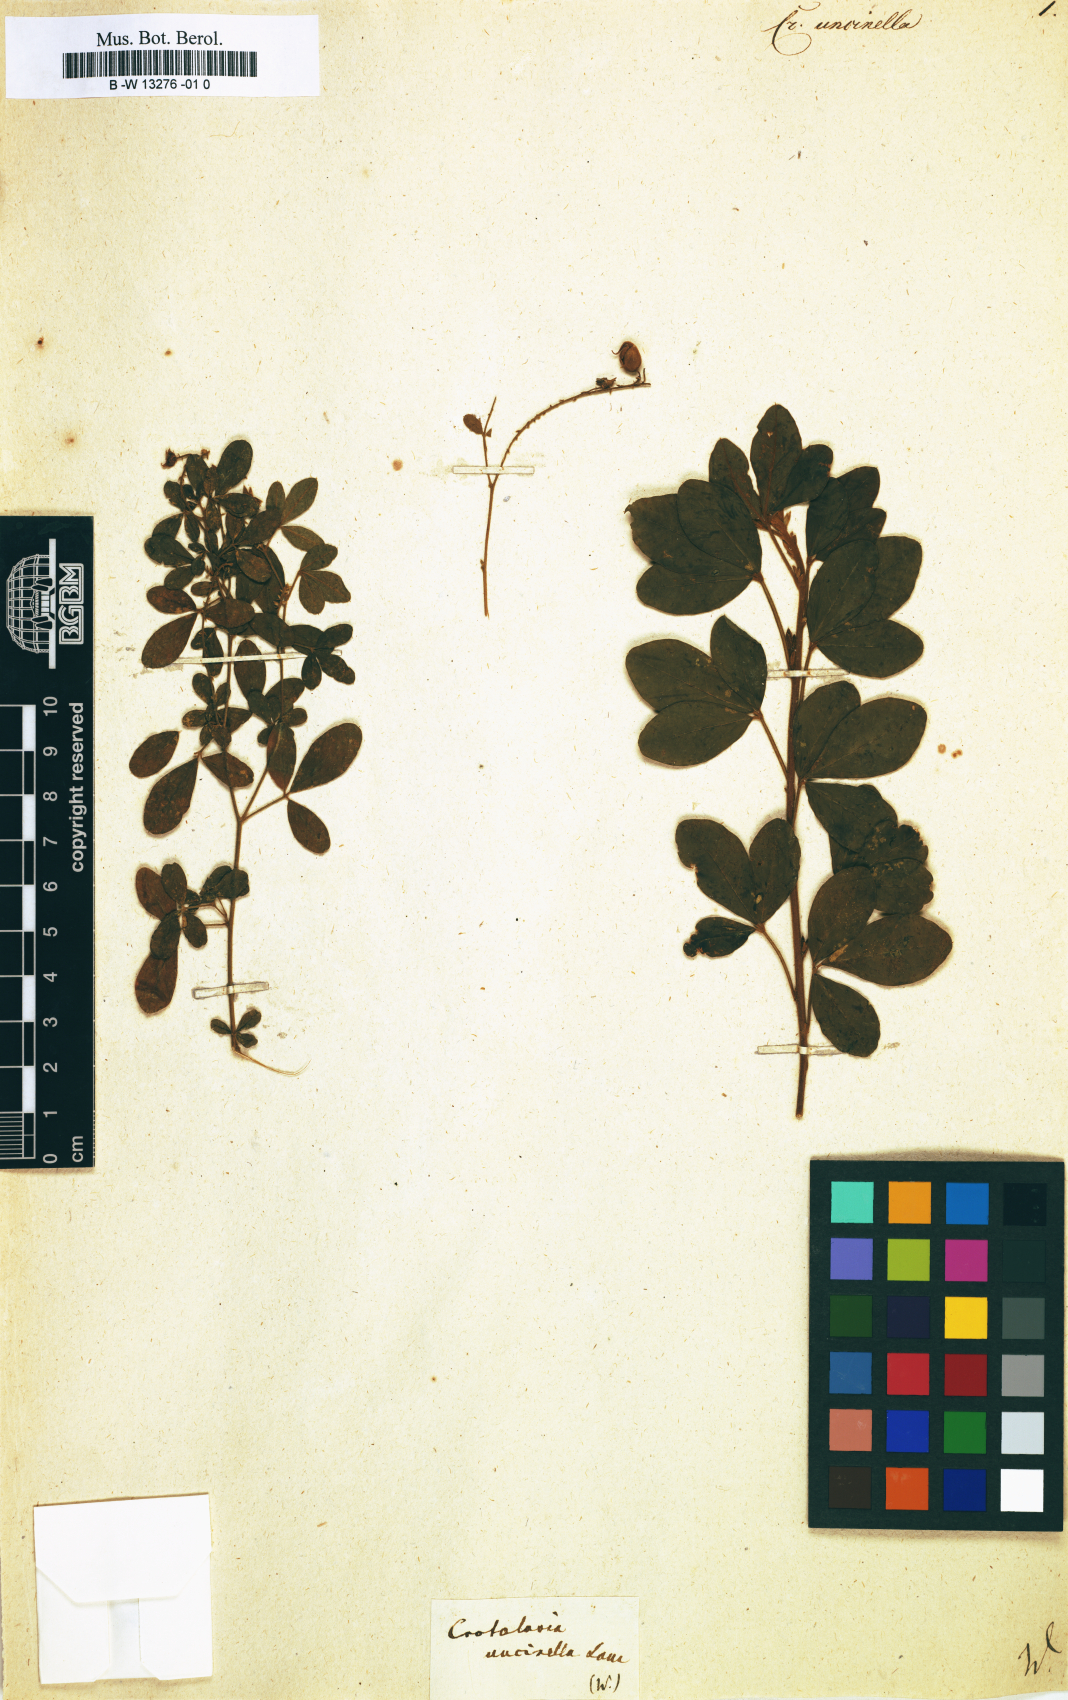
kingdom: Plantae
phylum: Tracheophyta
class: Magnoliopsida
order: Fabales
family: Fabaceae
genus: Crotalaria
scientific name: Crotalaria uncinella
